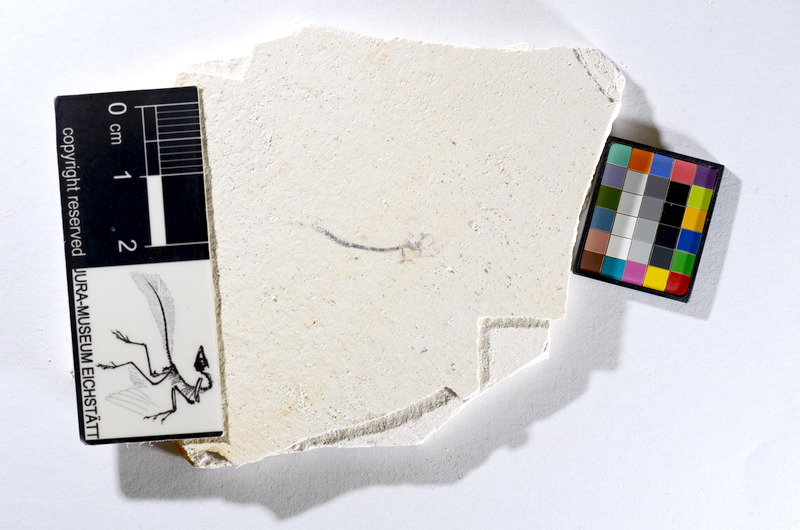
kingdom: Animalia
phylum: Chordata
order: Salmoniformes
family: Orthogonikleithridae
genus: Orthogonikleithrus
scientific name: Orthogonikleithrus hoelli
